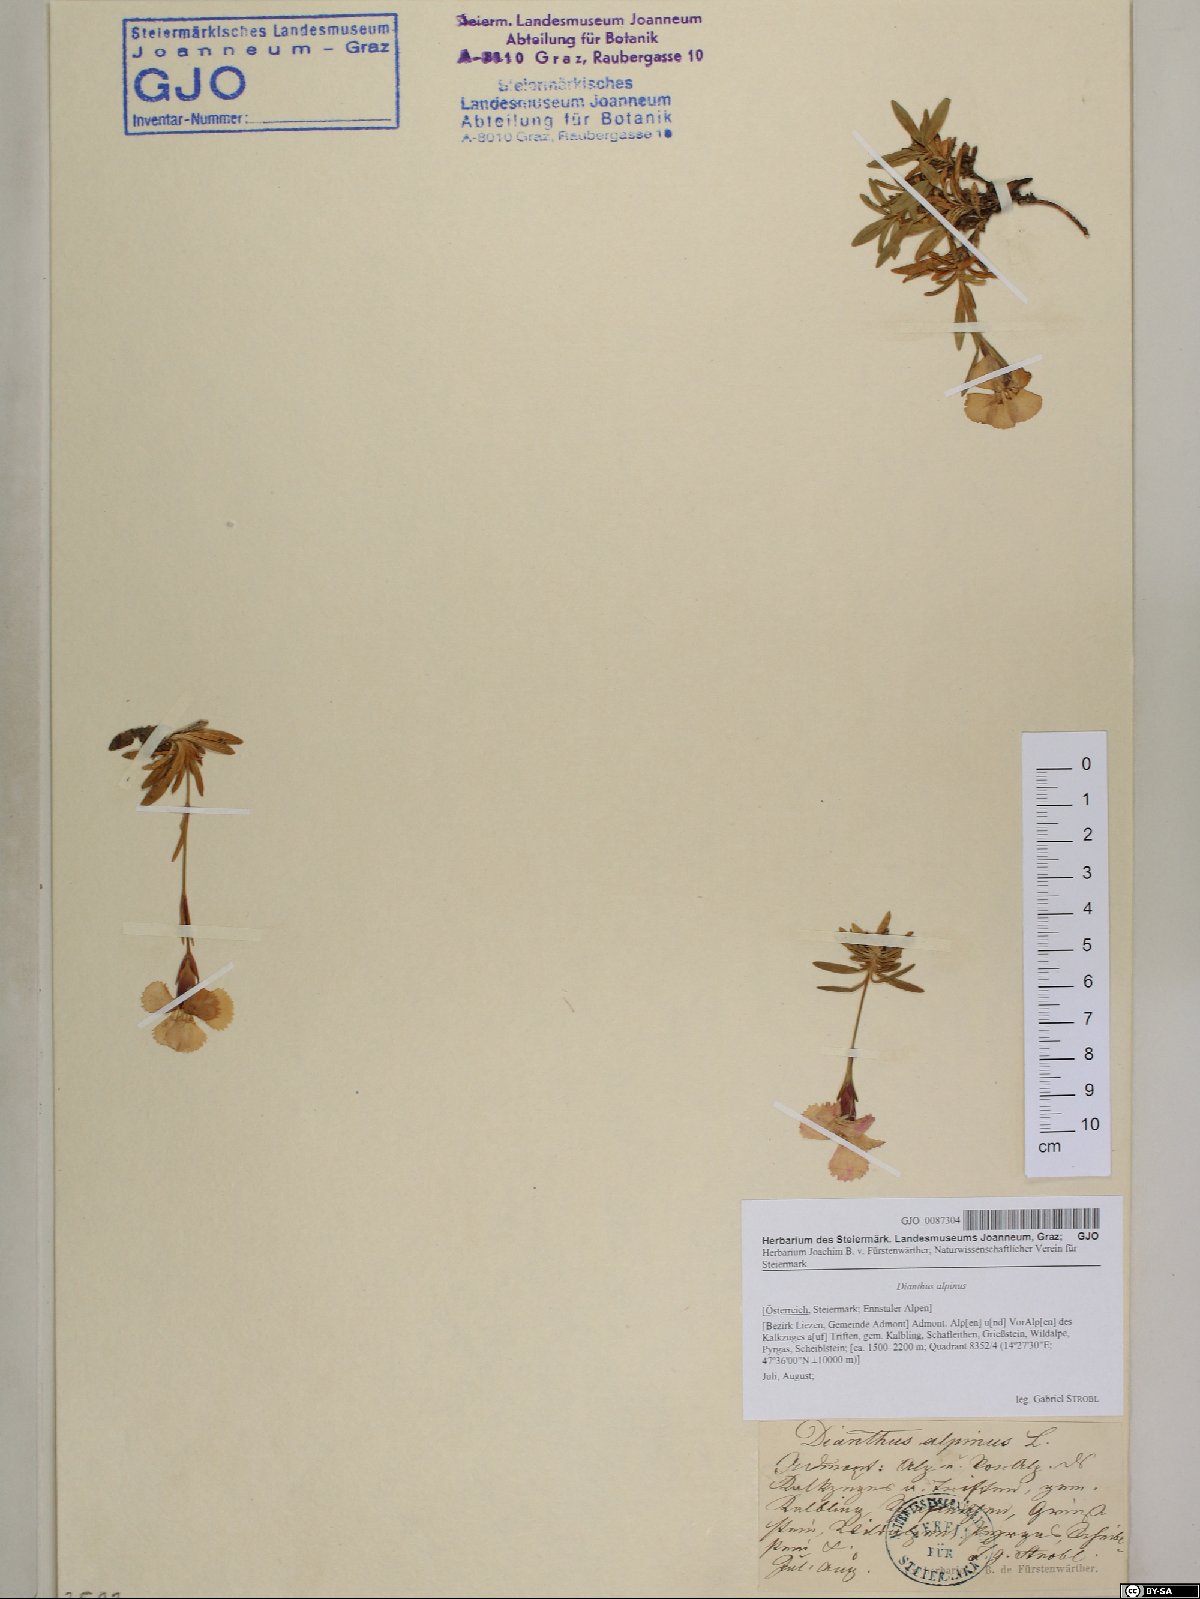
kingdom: Plantae
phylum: Tracheophyta
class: Magnoliopsida
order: Caryophyllales
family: Caryophyllaceae
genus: Dianthus
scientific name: Dianthus alpinus
